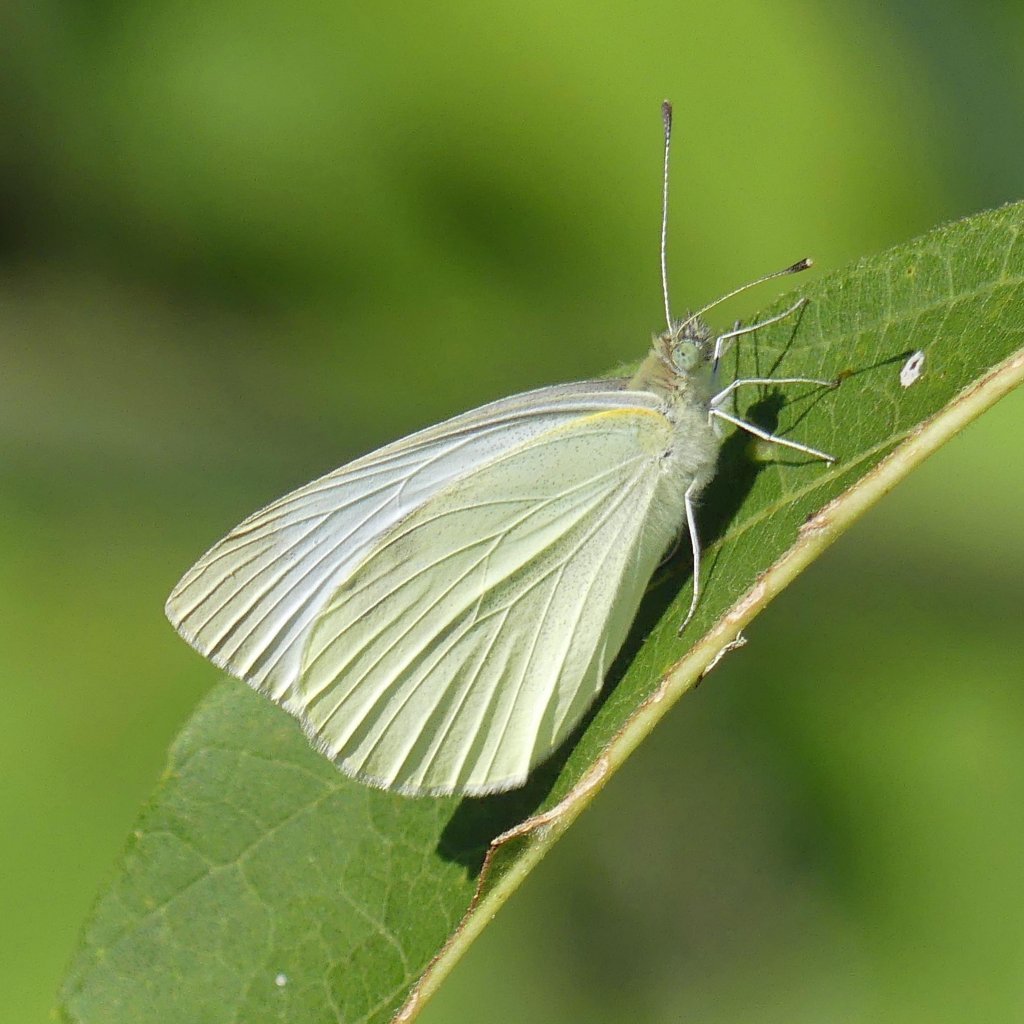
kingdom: Animalia
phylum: Arthropoda
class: Insecta
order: Lepidoptera
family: Pieridae
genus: Pieris
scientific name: Pieris rapae
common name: Cabbage White
